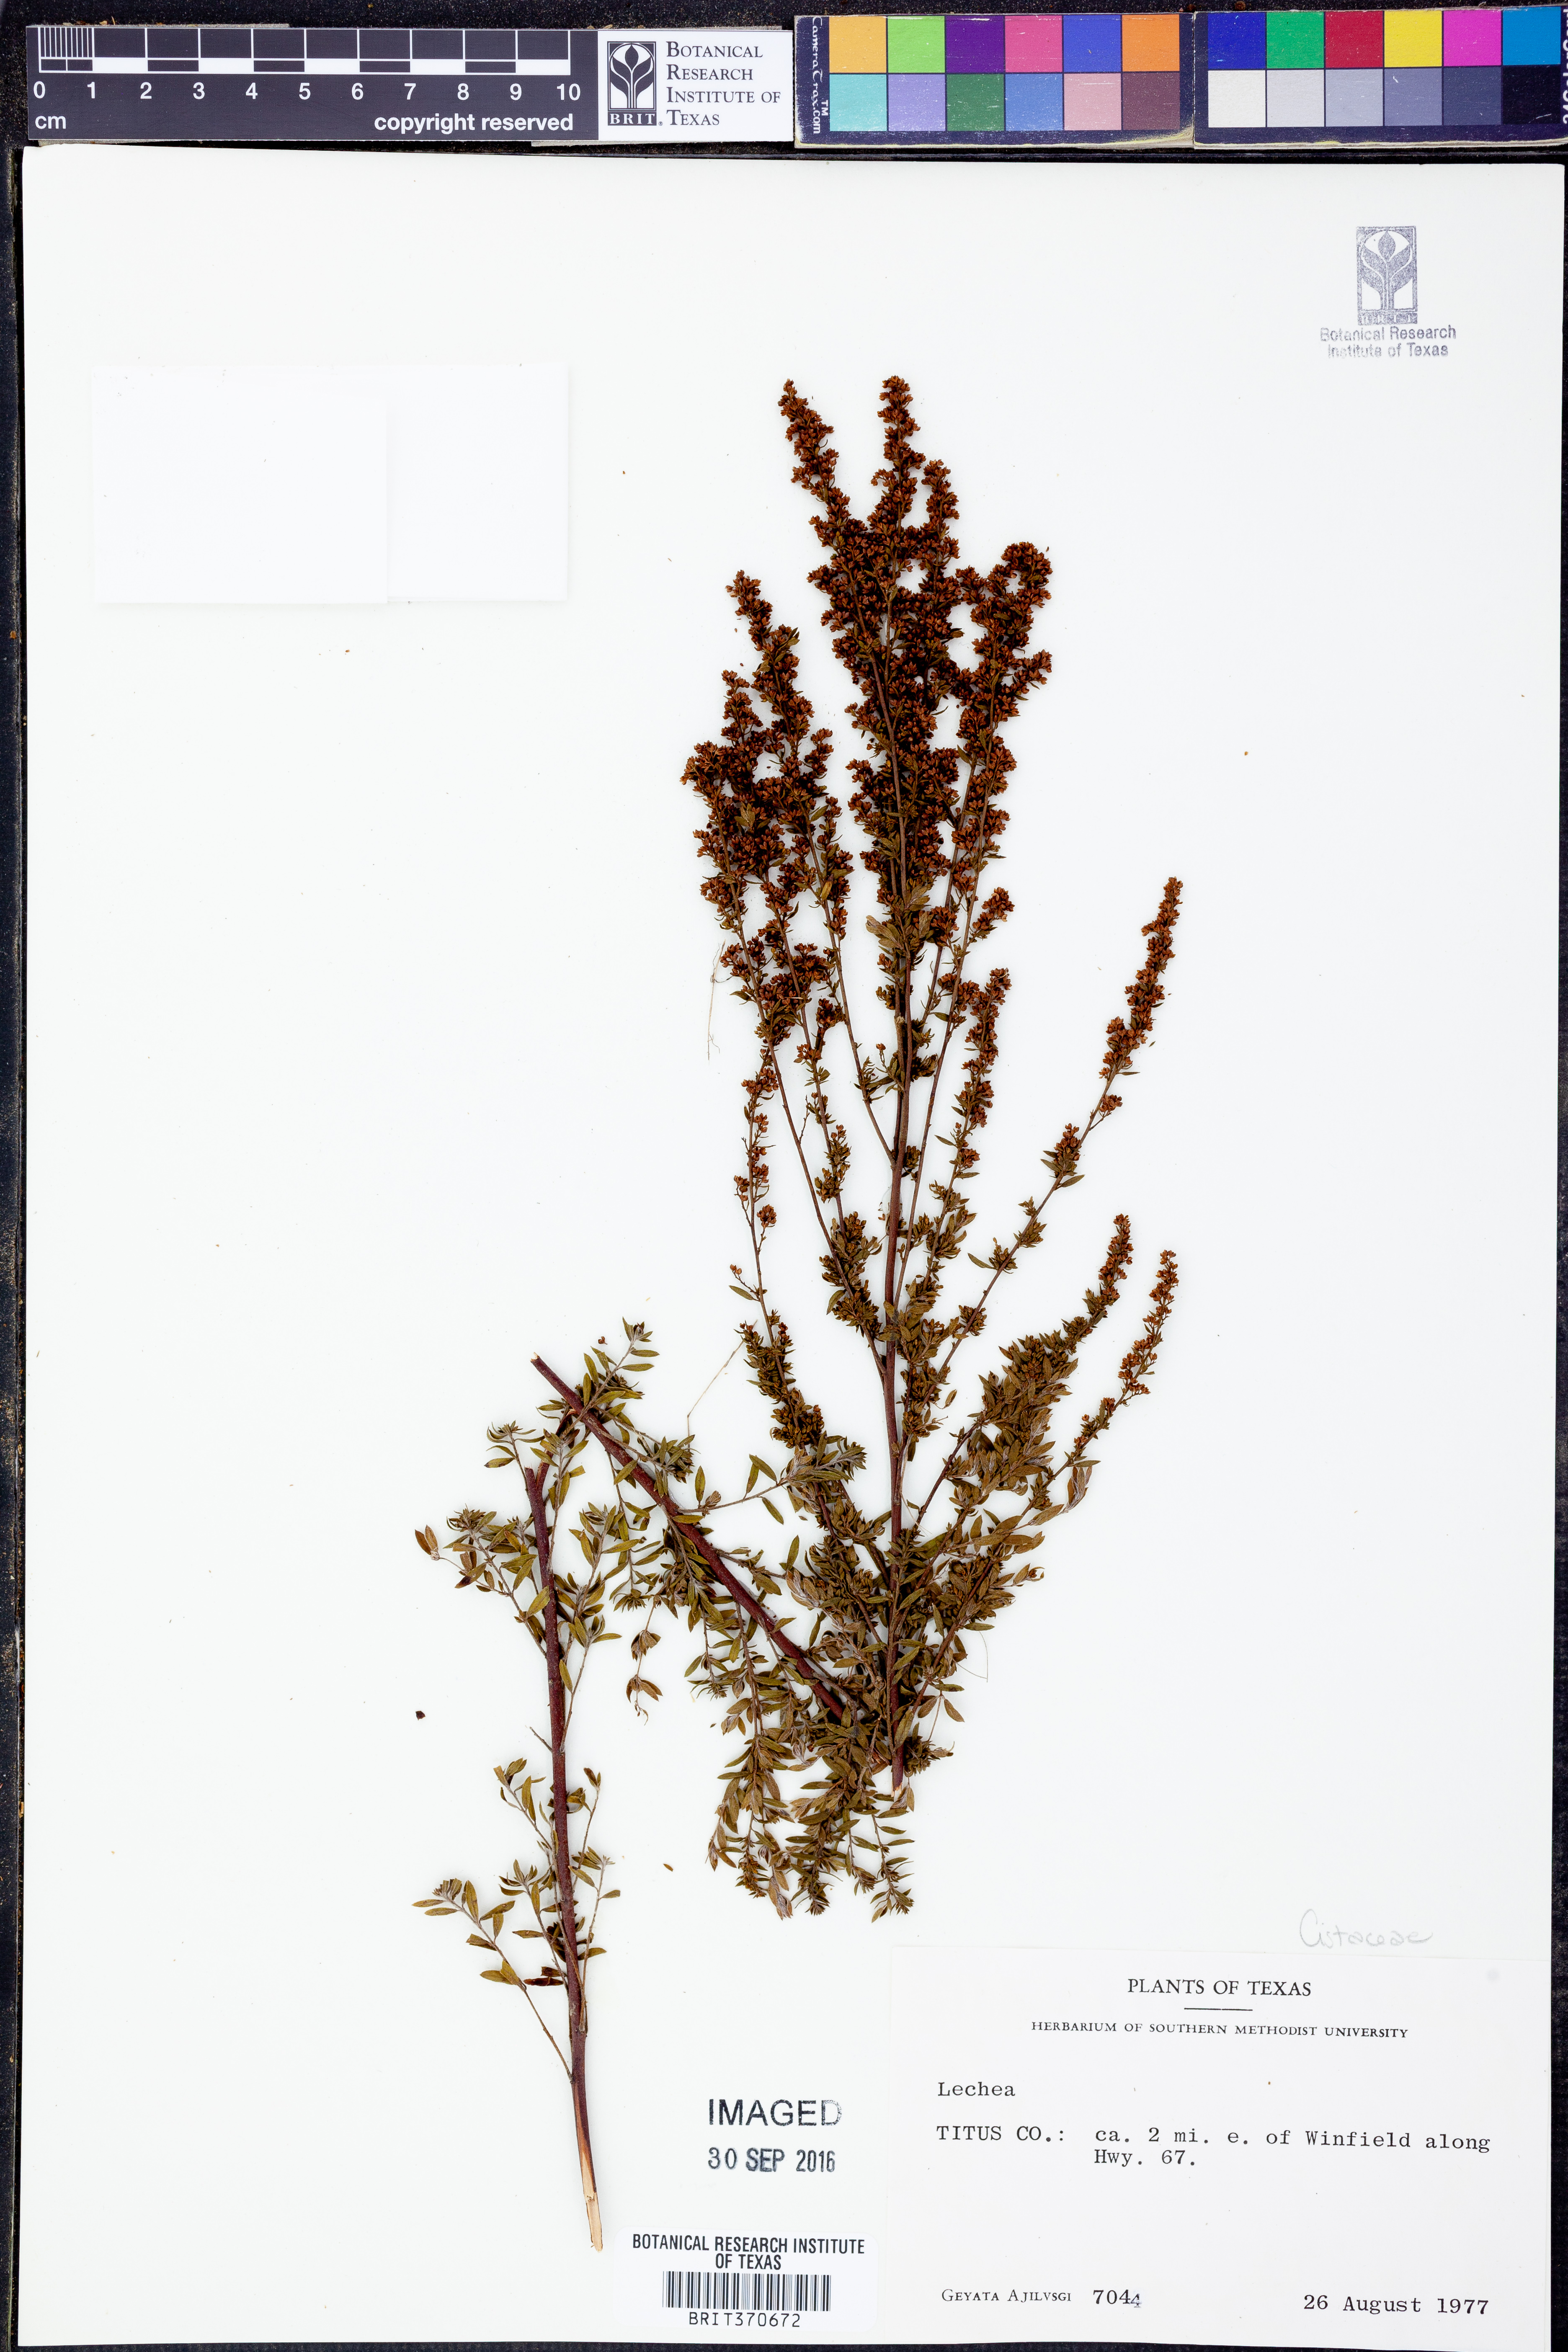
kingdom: Plantae
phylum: Tracheophyta
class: Magnoliopsida
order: Malvales
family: Cistaceae
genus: Lechea
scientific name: Lechea
